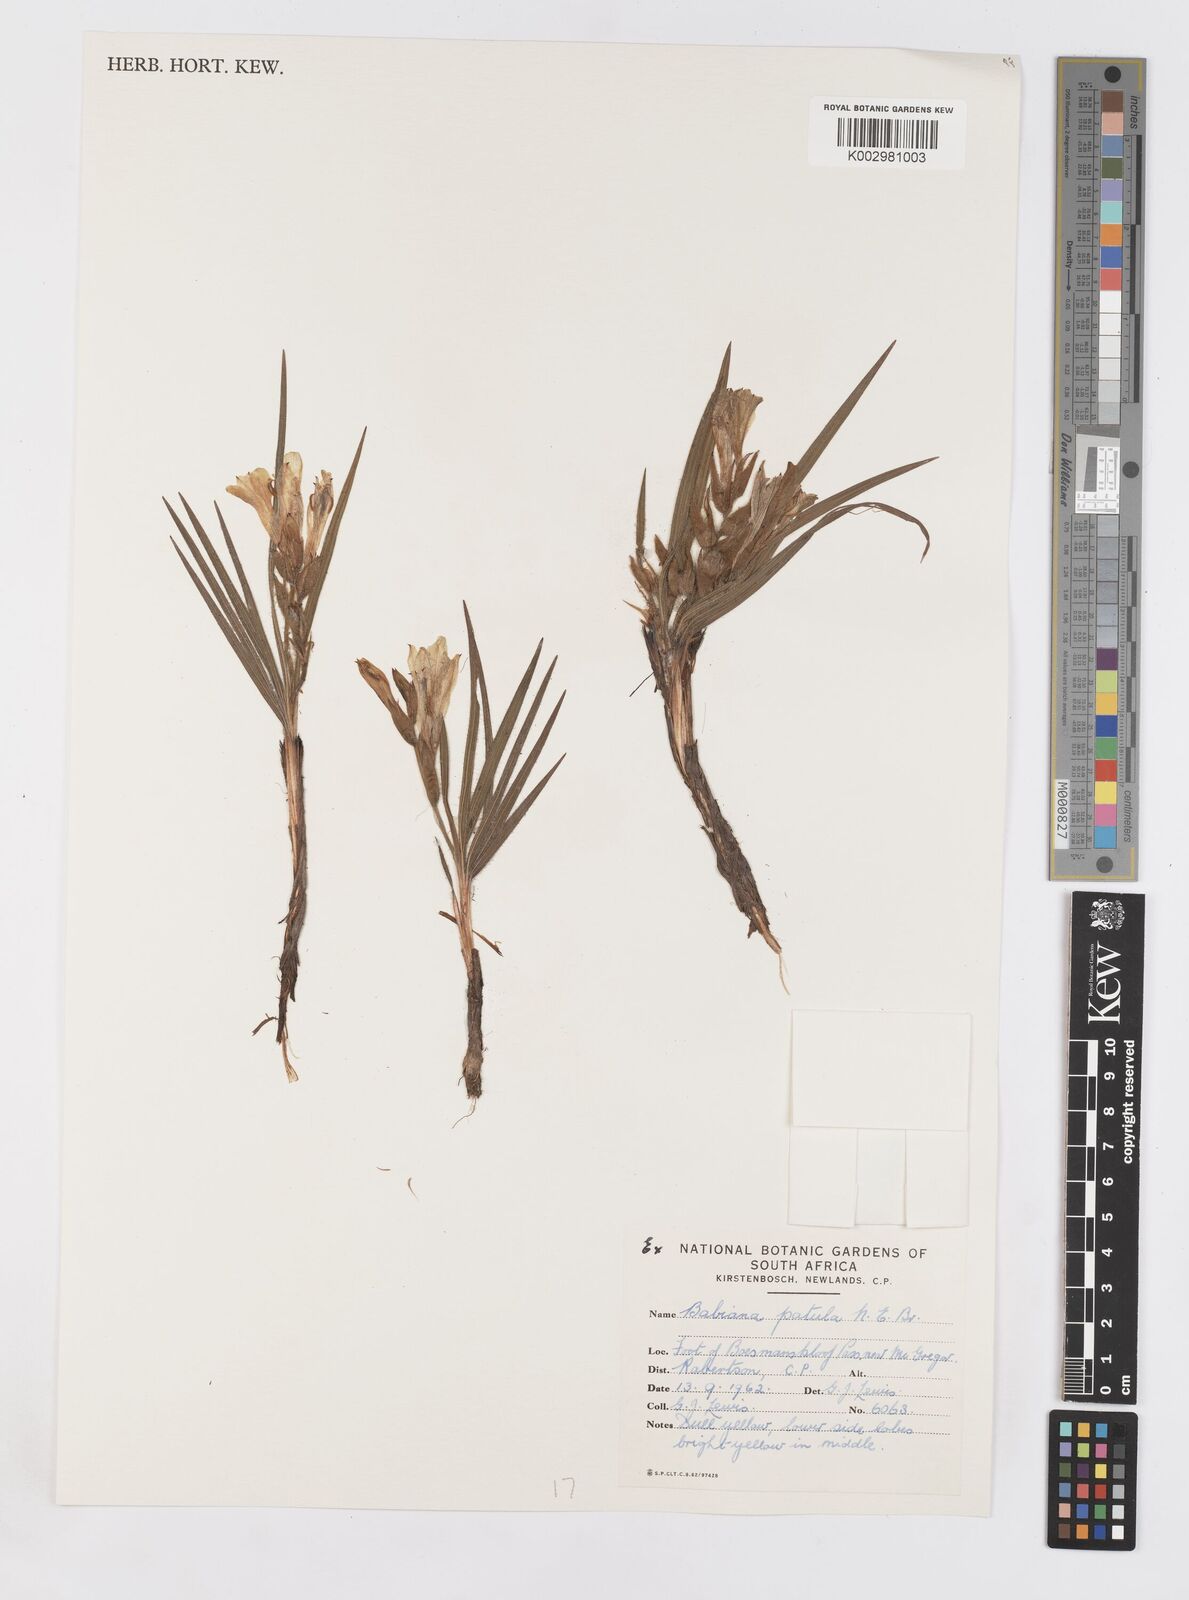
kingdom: Plantae
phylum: Tracheophyta
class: Liliopsida
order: Asparagales
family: Iridaceae
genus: Babiana
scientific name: Babiana patula
